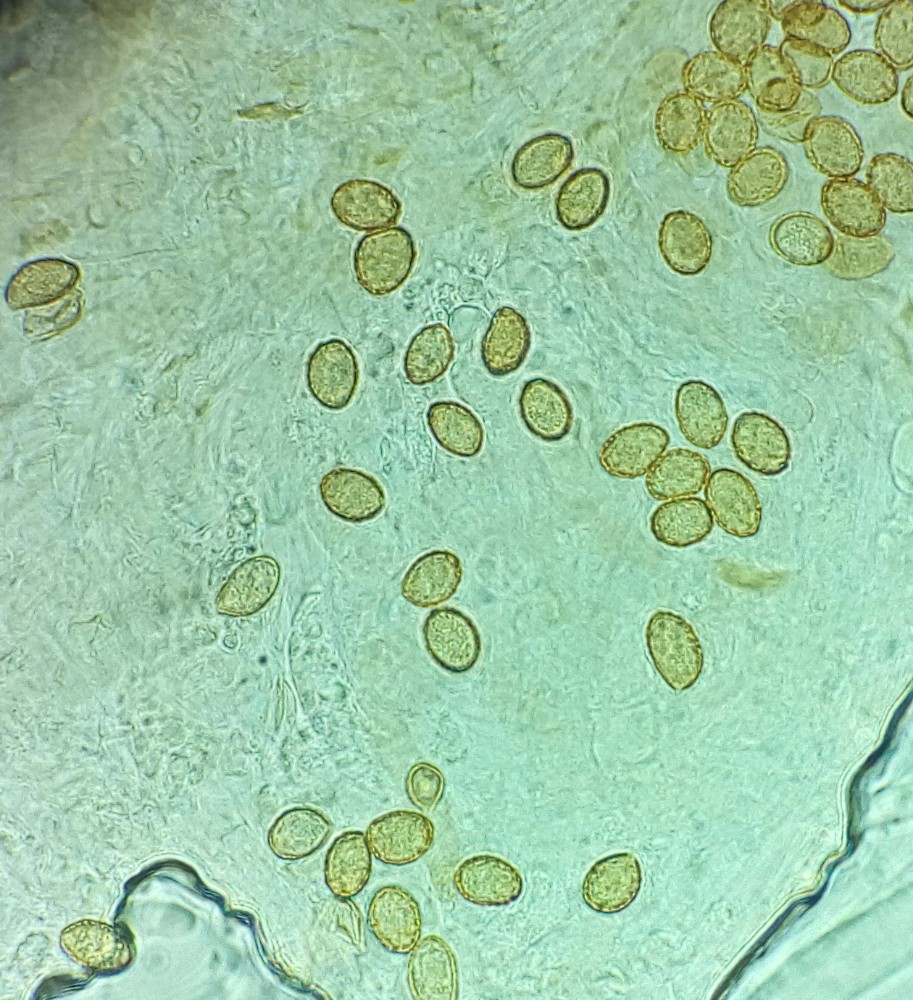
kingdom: Fungi
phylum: Basidiomycota
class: Agaricomycetes
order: Agaricales
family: Cortinariaceae
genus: Cortinarius
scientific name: Cortinarius
